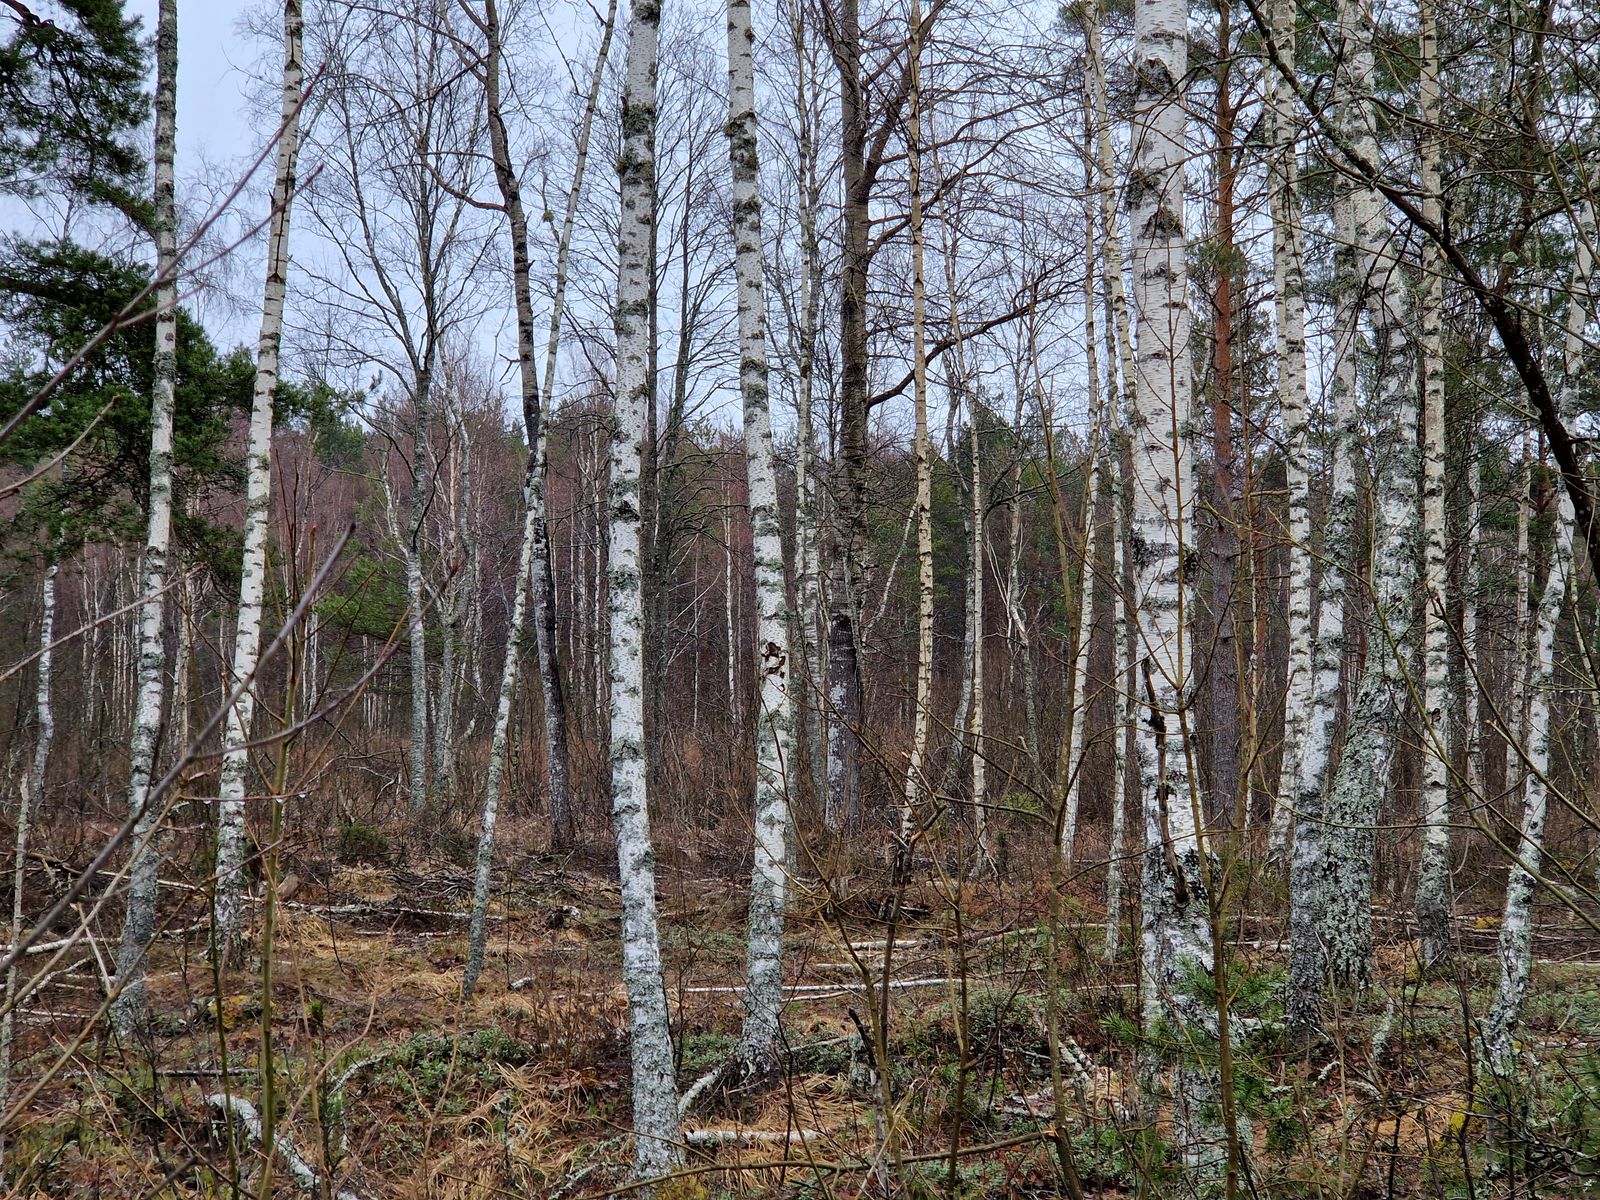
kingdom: Animalia
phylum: Chordata
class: Aves
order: Galliformes
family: Phasianidae
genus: Tetrao
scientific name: Tetrao urogallus
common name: Western capercaillie
